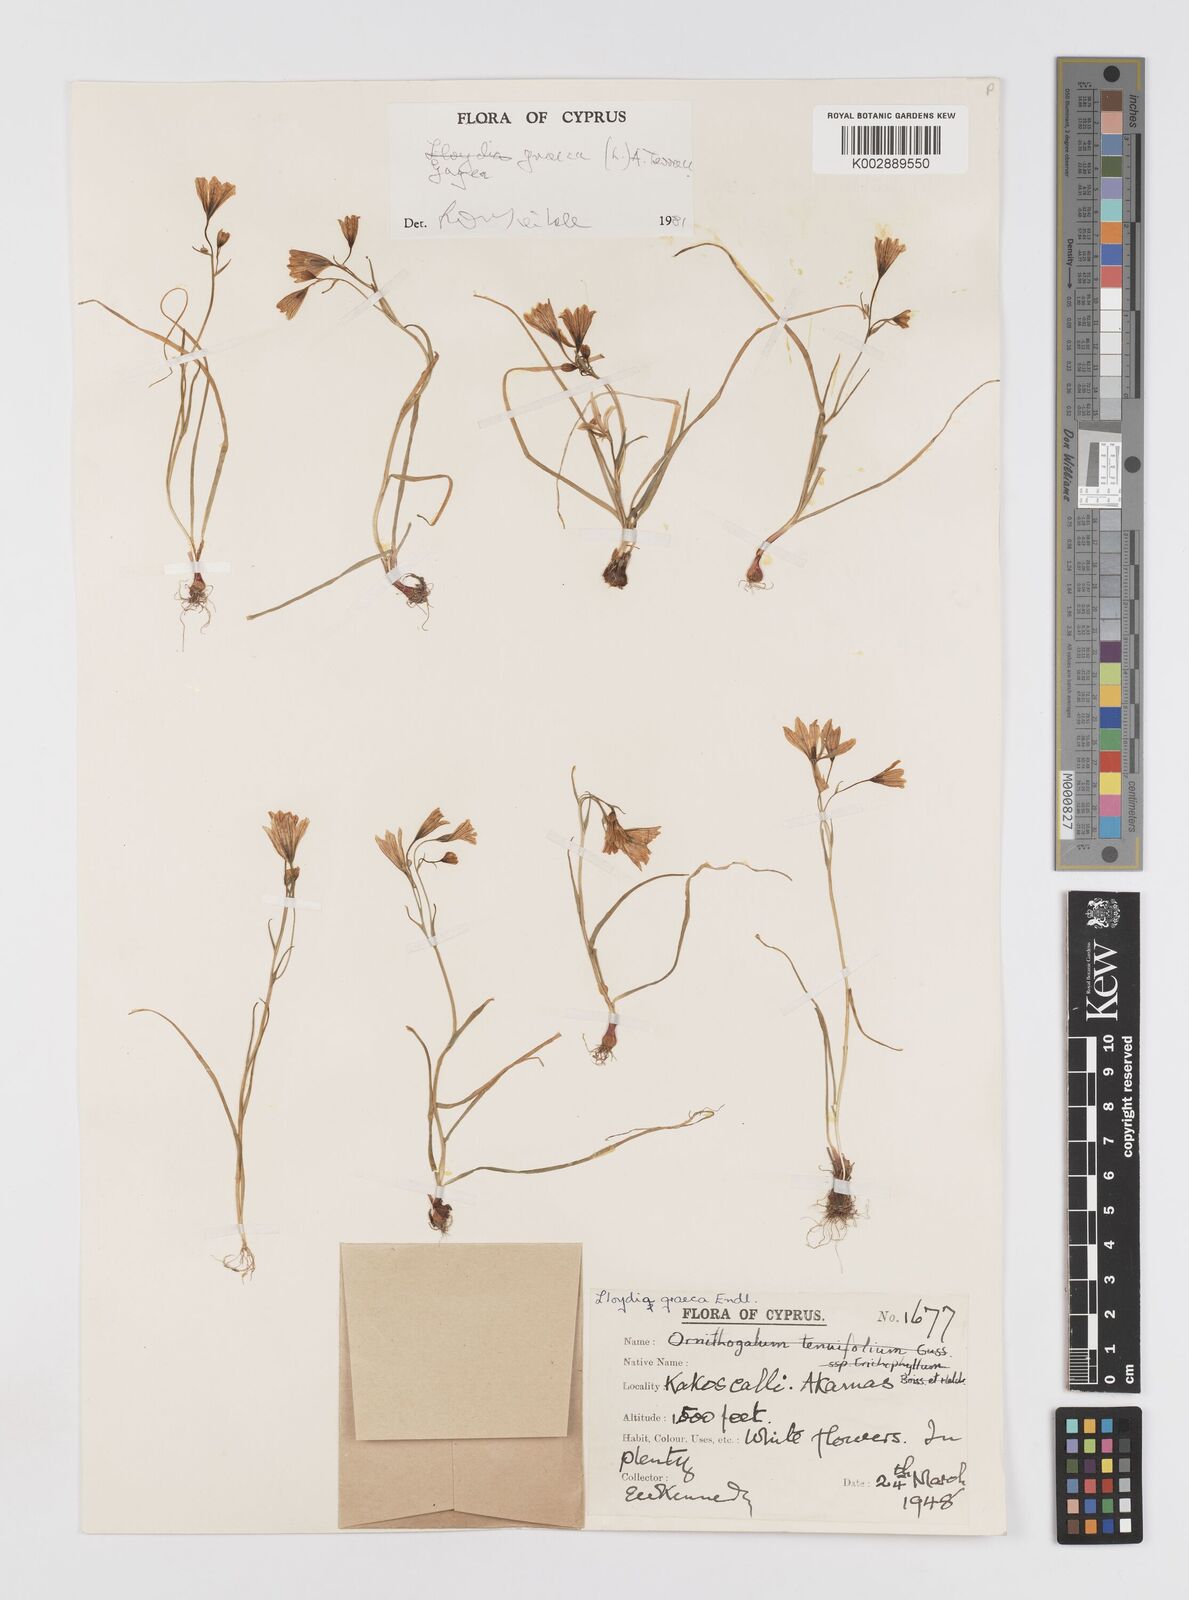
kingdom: Plantae
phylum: Tracheophyta
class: Liliopsida
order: Liliales
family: Liliaceae
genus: Gagea
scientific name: Gagea graeca
